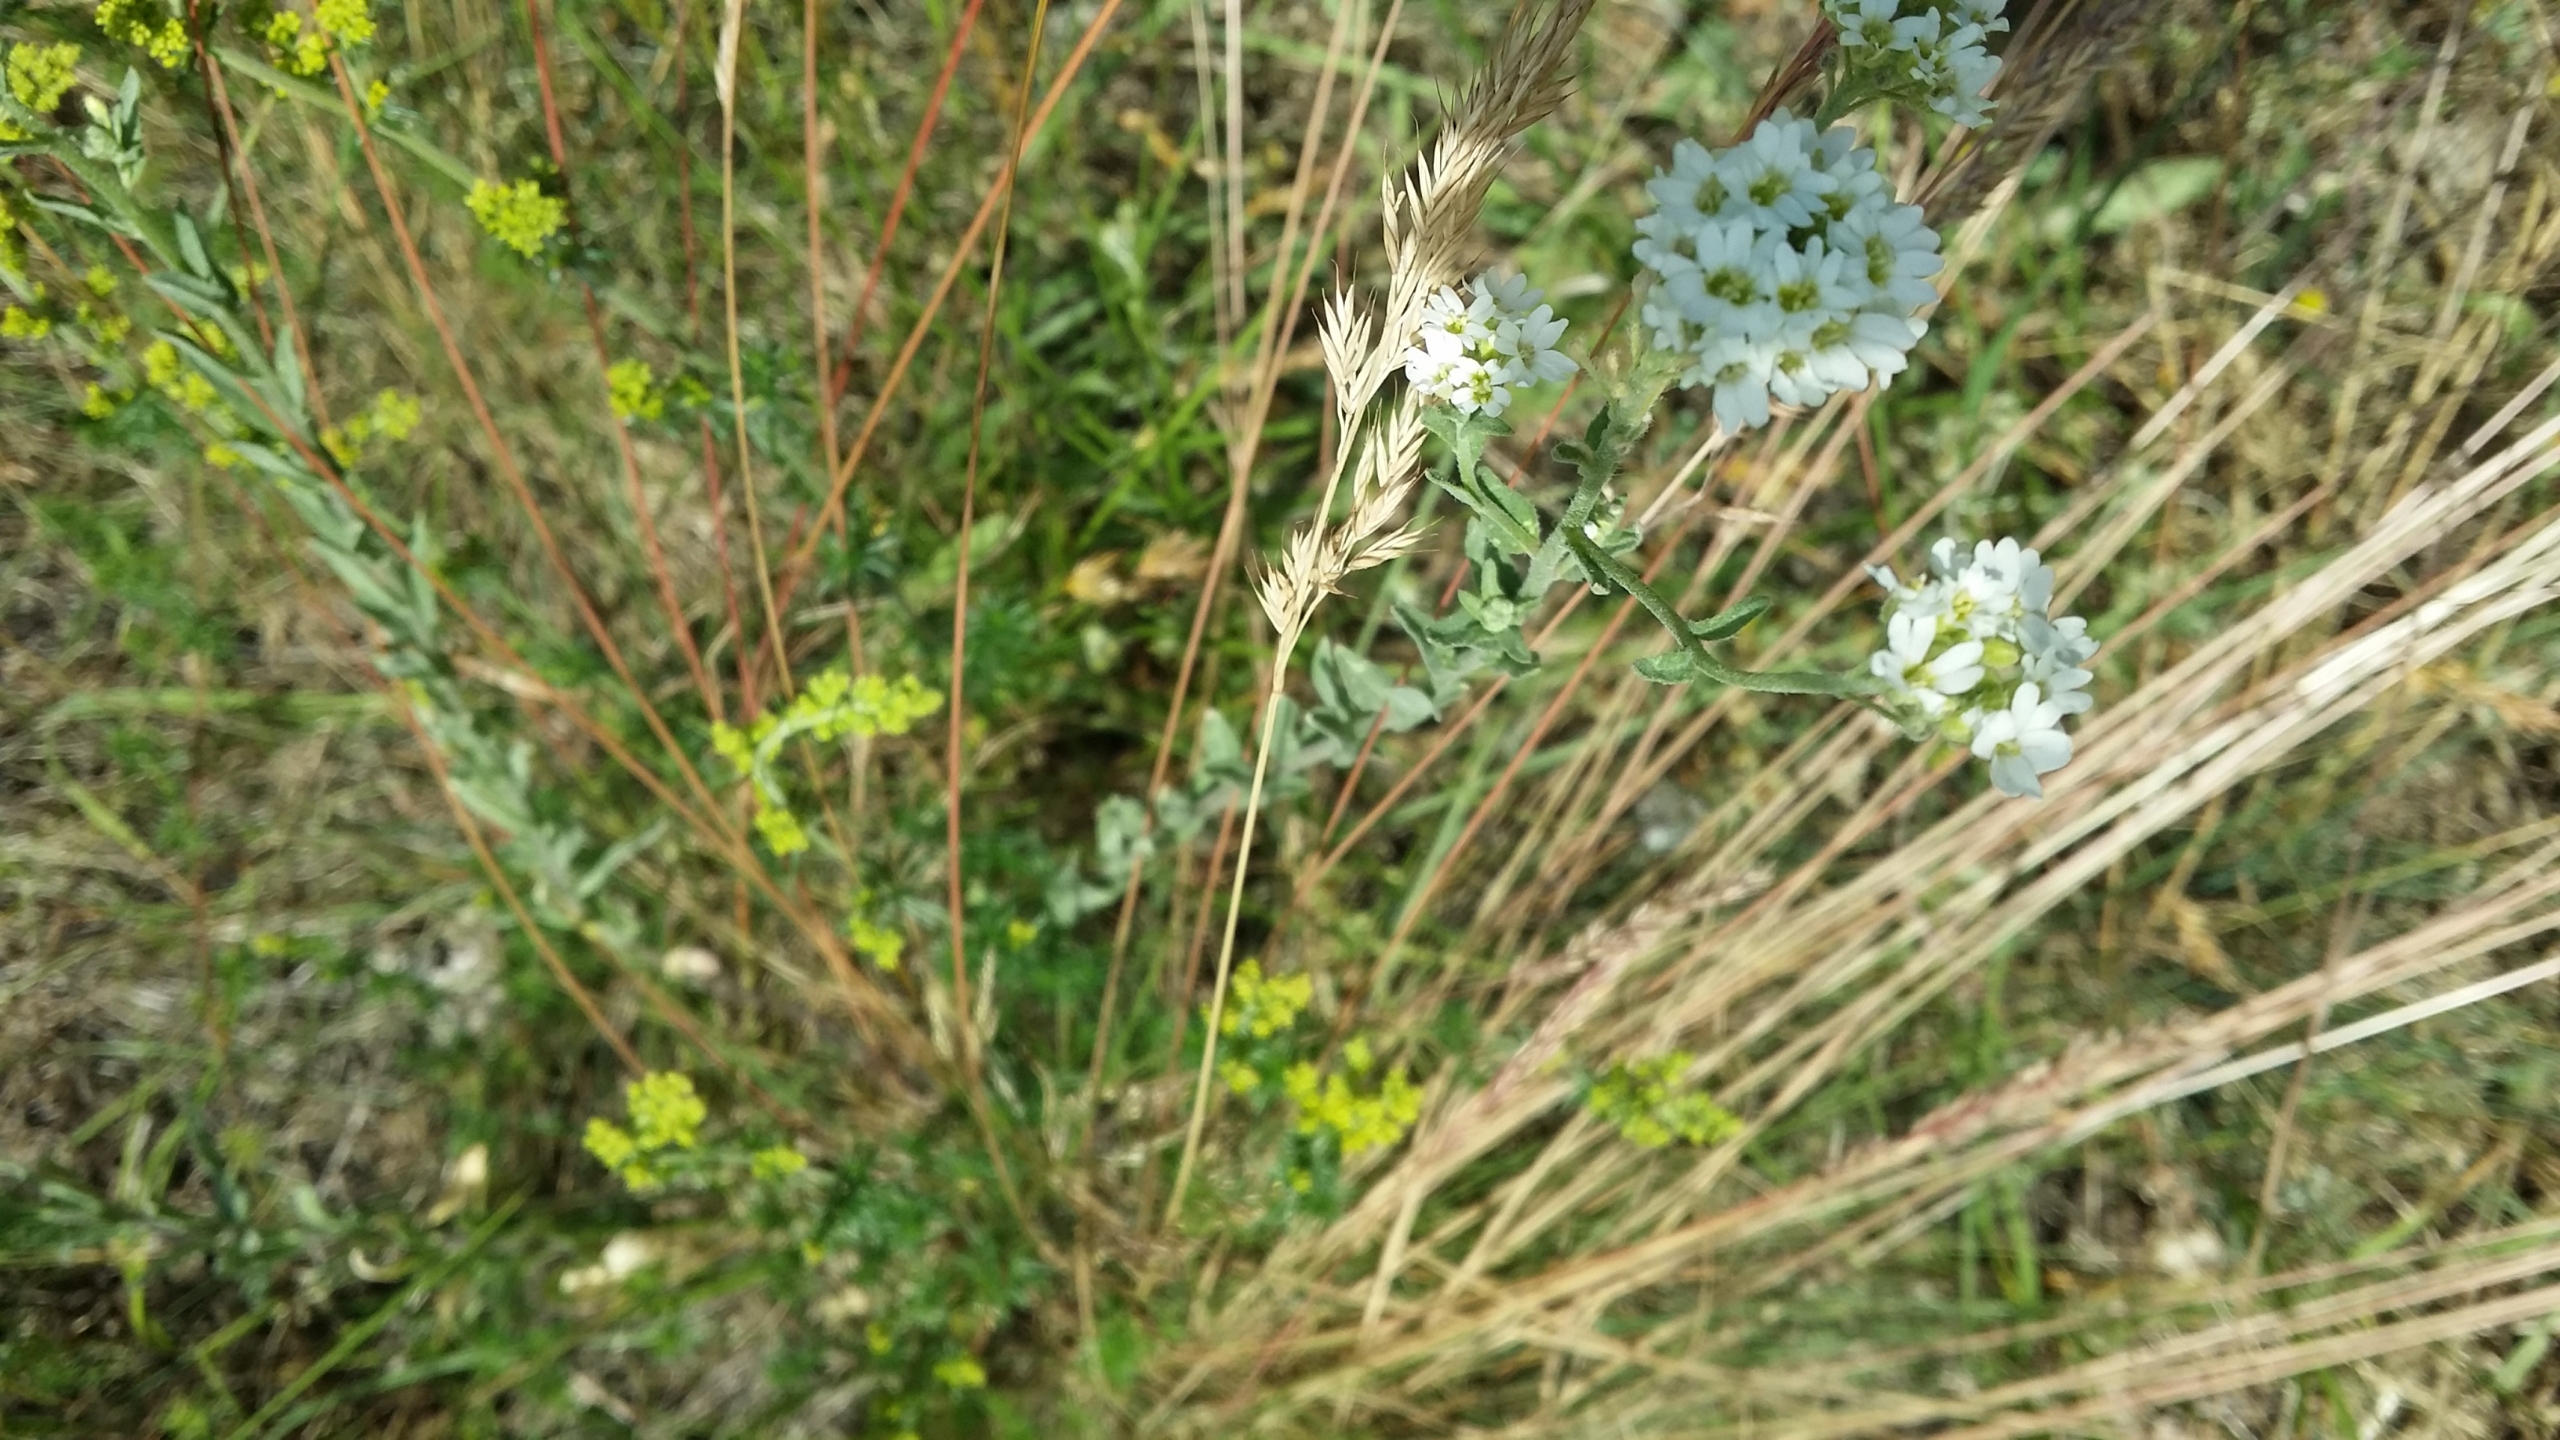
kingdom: Plantae
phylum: Tracheophyta
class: Magnoliopsida
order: Brassicales
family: Brassicaceae
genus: Berteroa
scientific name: Berteroa incana
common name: Kløvplade
